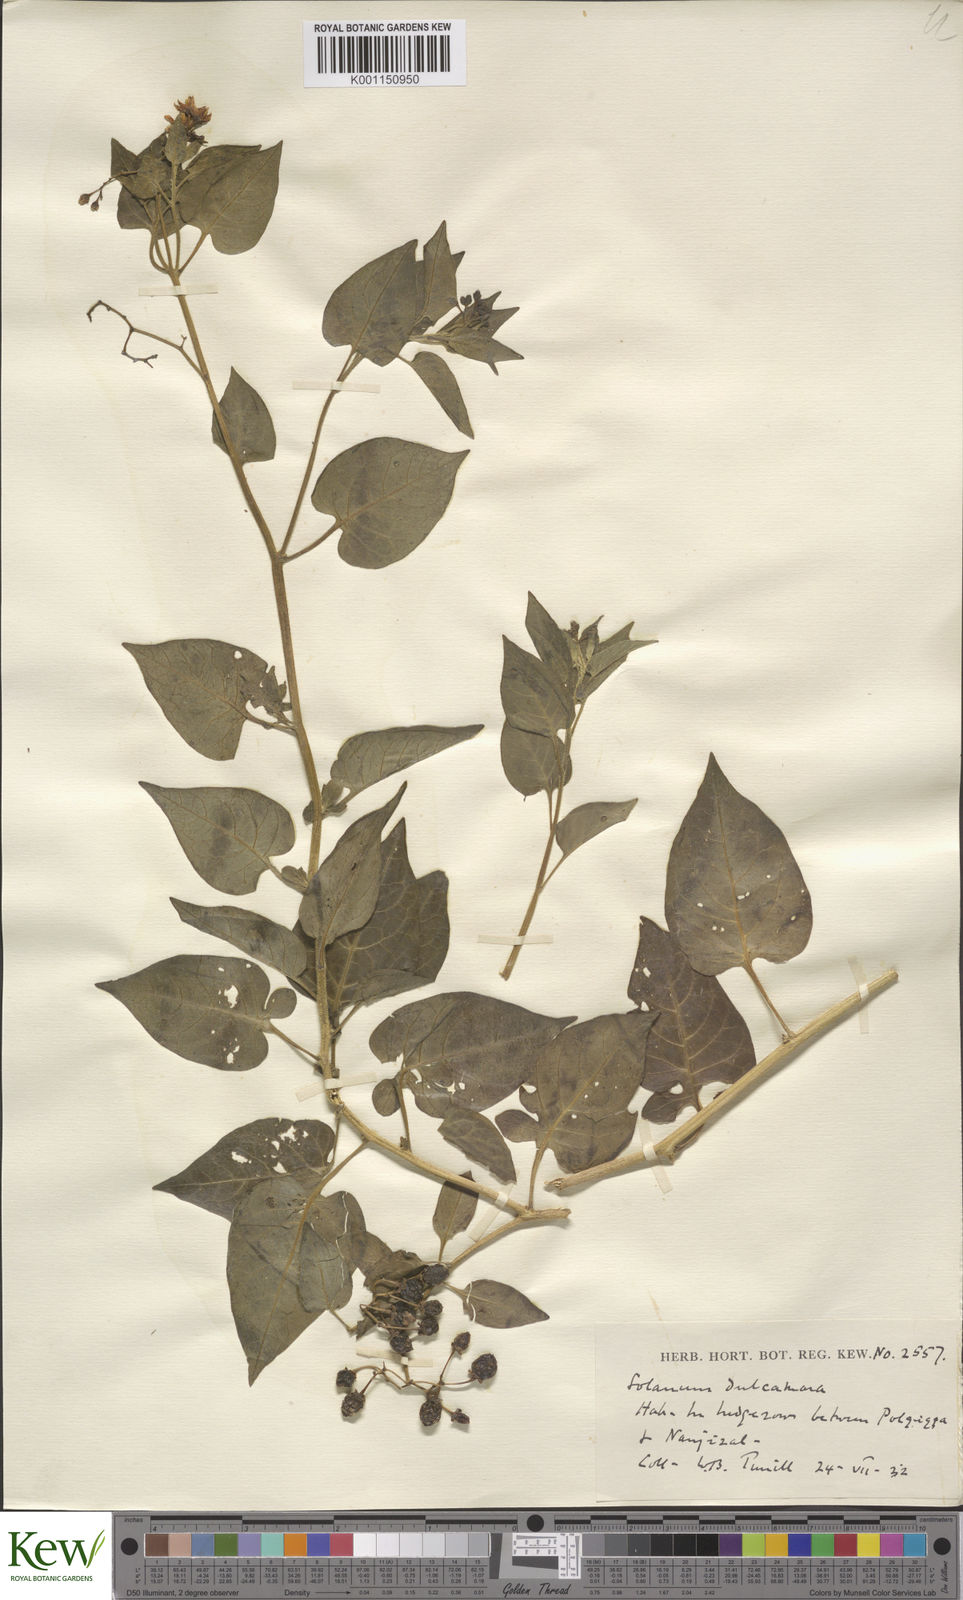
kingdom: Plantae
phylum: Tracheophyta
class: Magnoliopsida
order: Solanales
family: Solanaceae
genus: Solanum
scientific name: Solanum dulcamara
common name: Climbing nightshade
